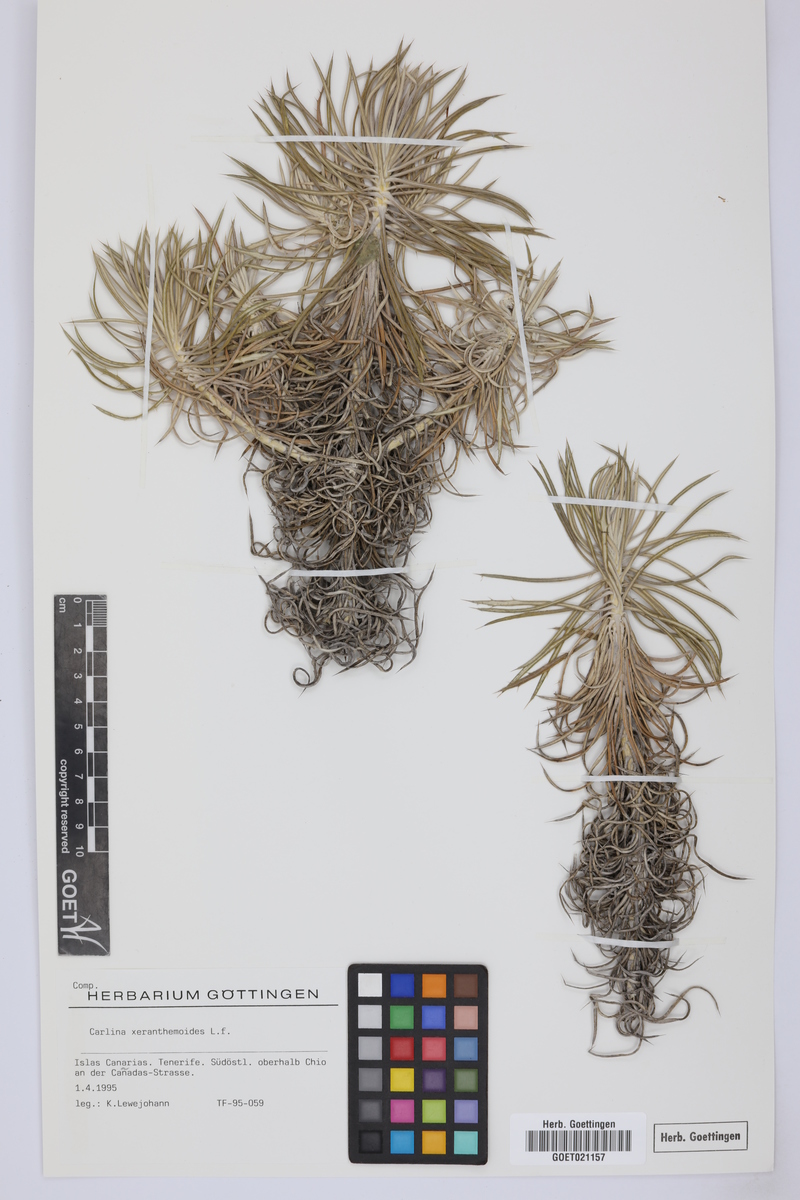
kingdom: Plantae
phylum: Tracheophyta
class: Magnoliopsida
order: Asterales
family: Asteraceae
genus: Carlina
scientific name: Carlina xeranthemoides
